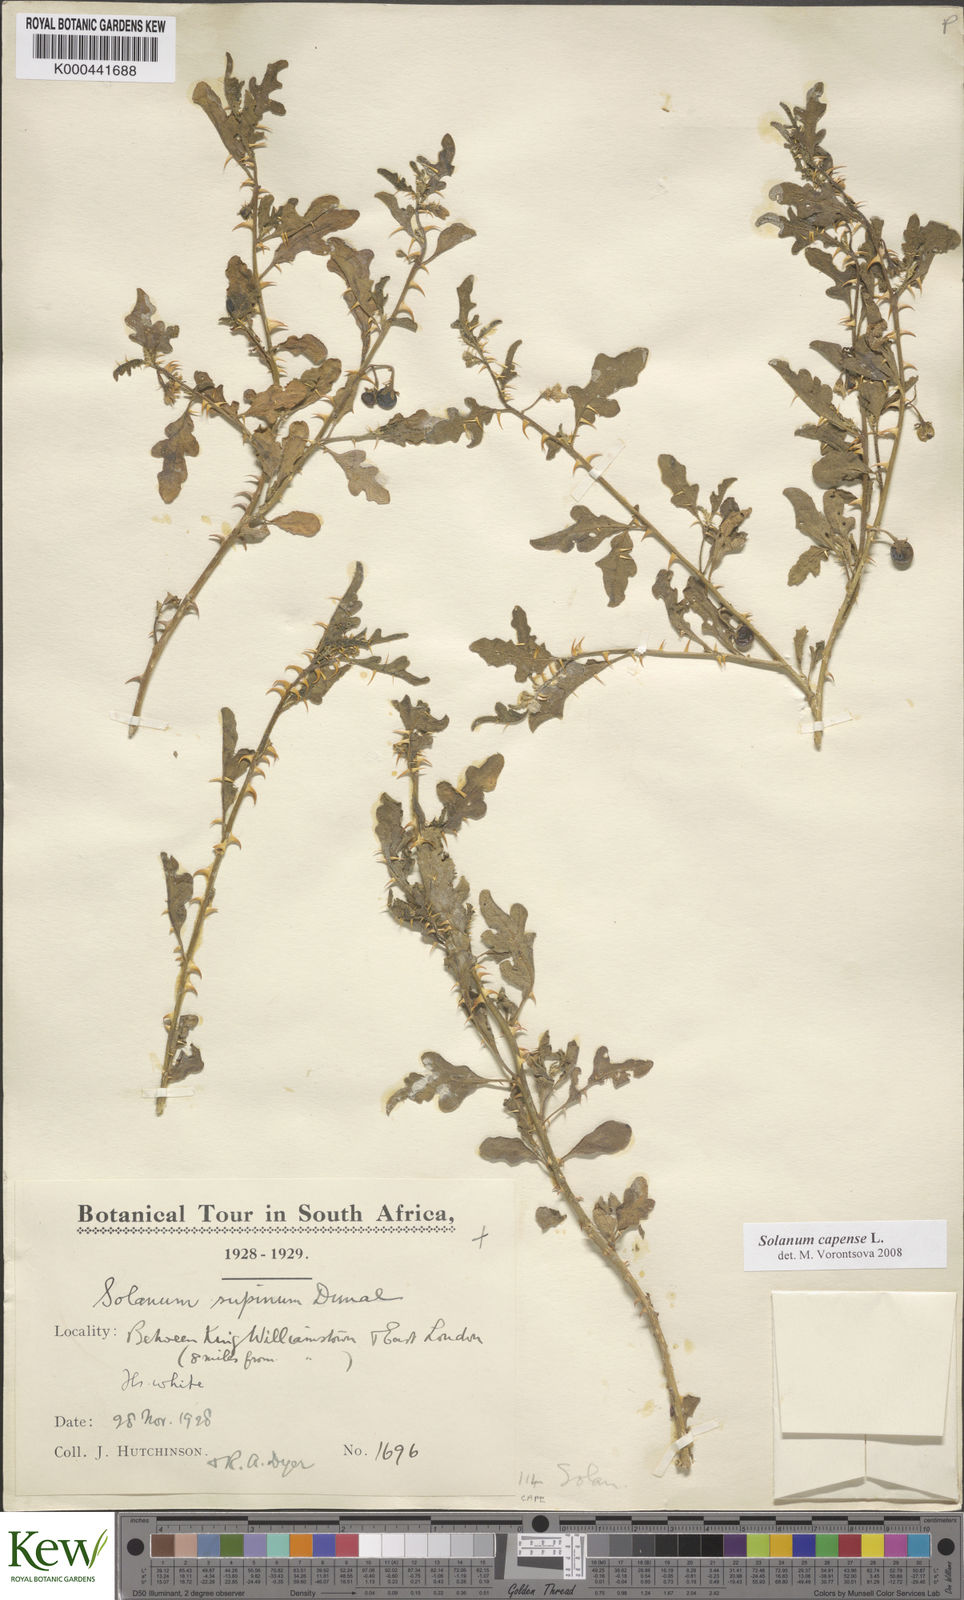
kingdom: Plantae
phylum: Tracheophyta
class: Magnoliopsida
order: Solanales
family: Solanaceae
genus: Solanum
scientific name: Solanum capense
